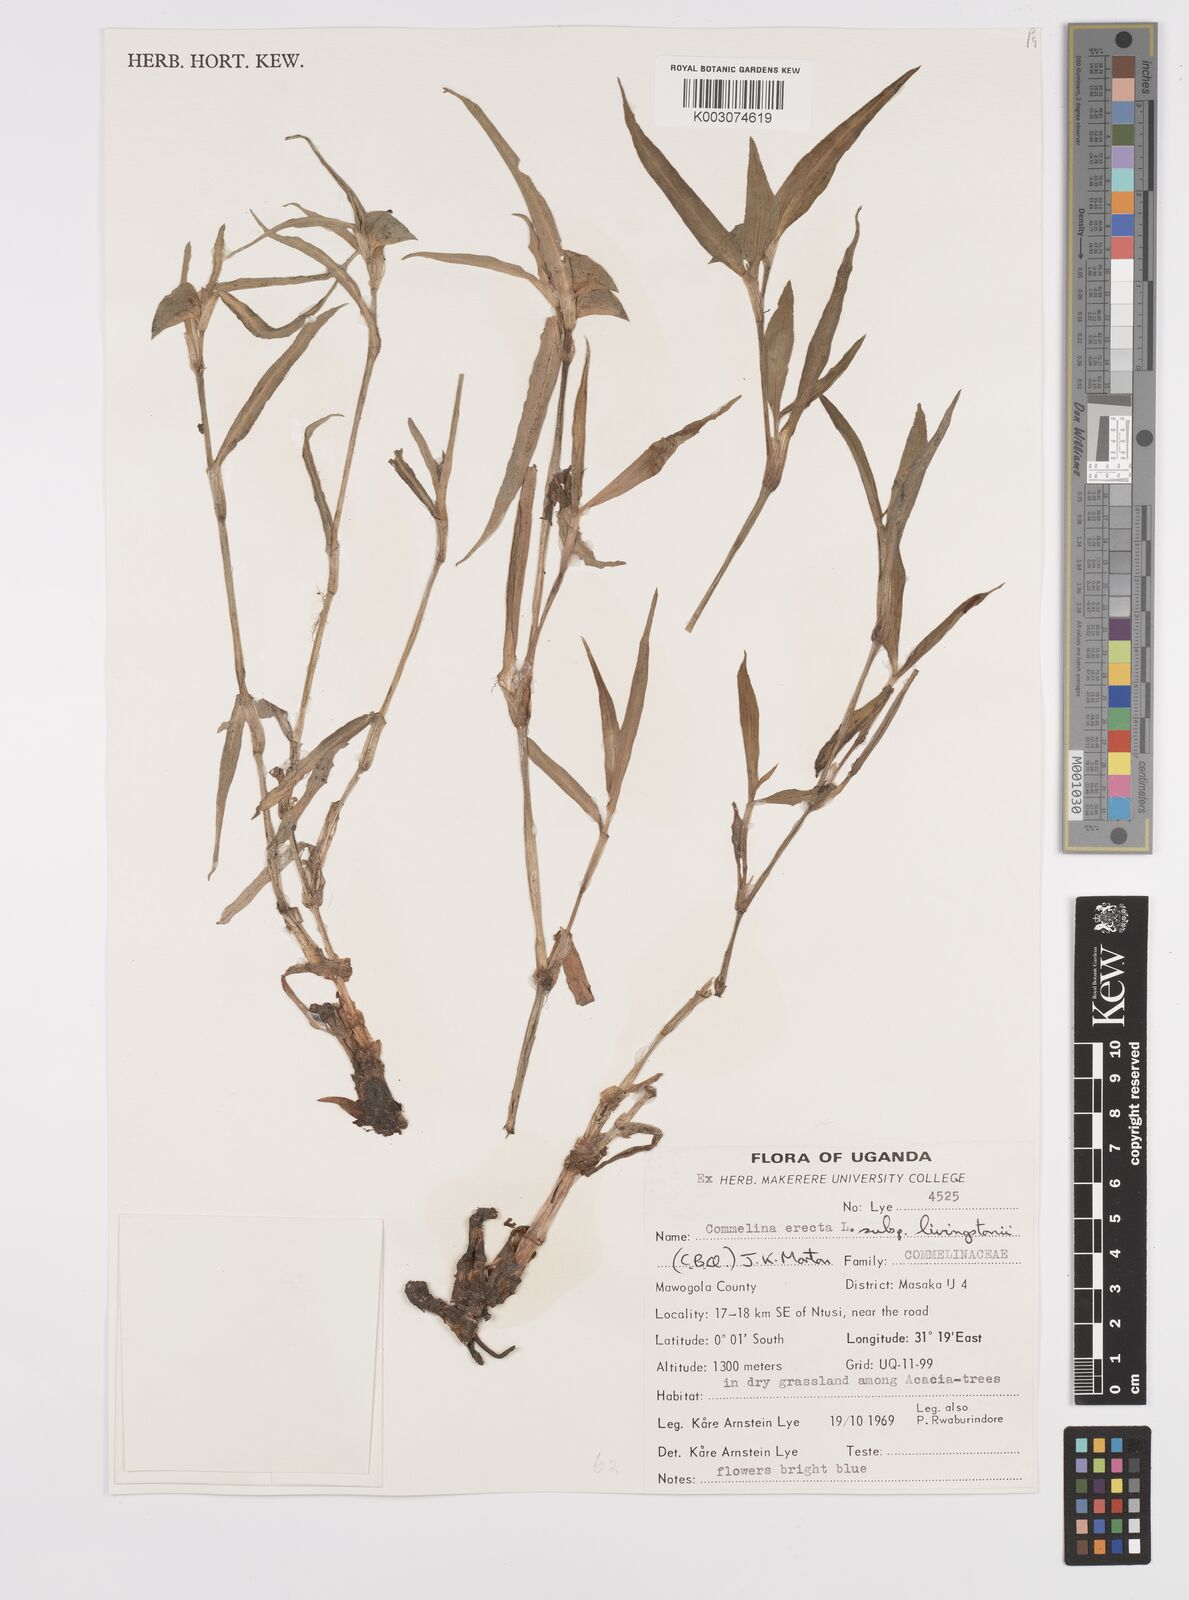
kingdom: Plantae
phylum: Tracheophyta
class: Liliopsida
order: Commelinales
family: Commelinaceae
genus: Commelina
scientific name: Commelina erecta
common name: Blousel blommetjie
